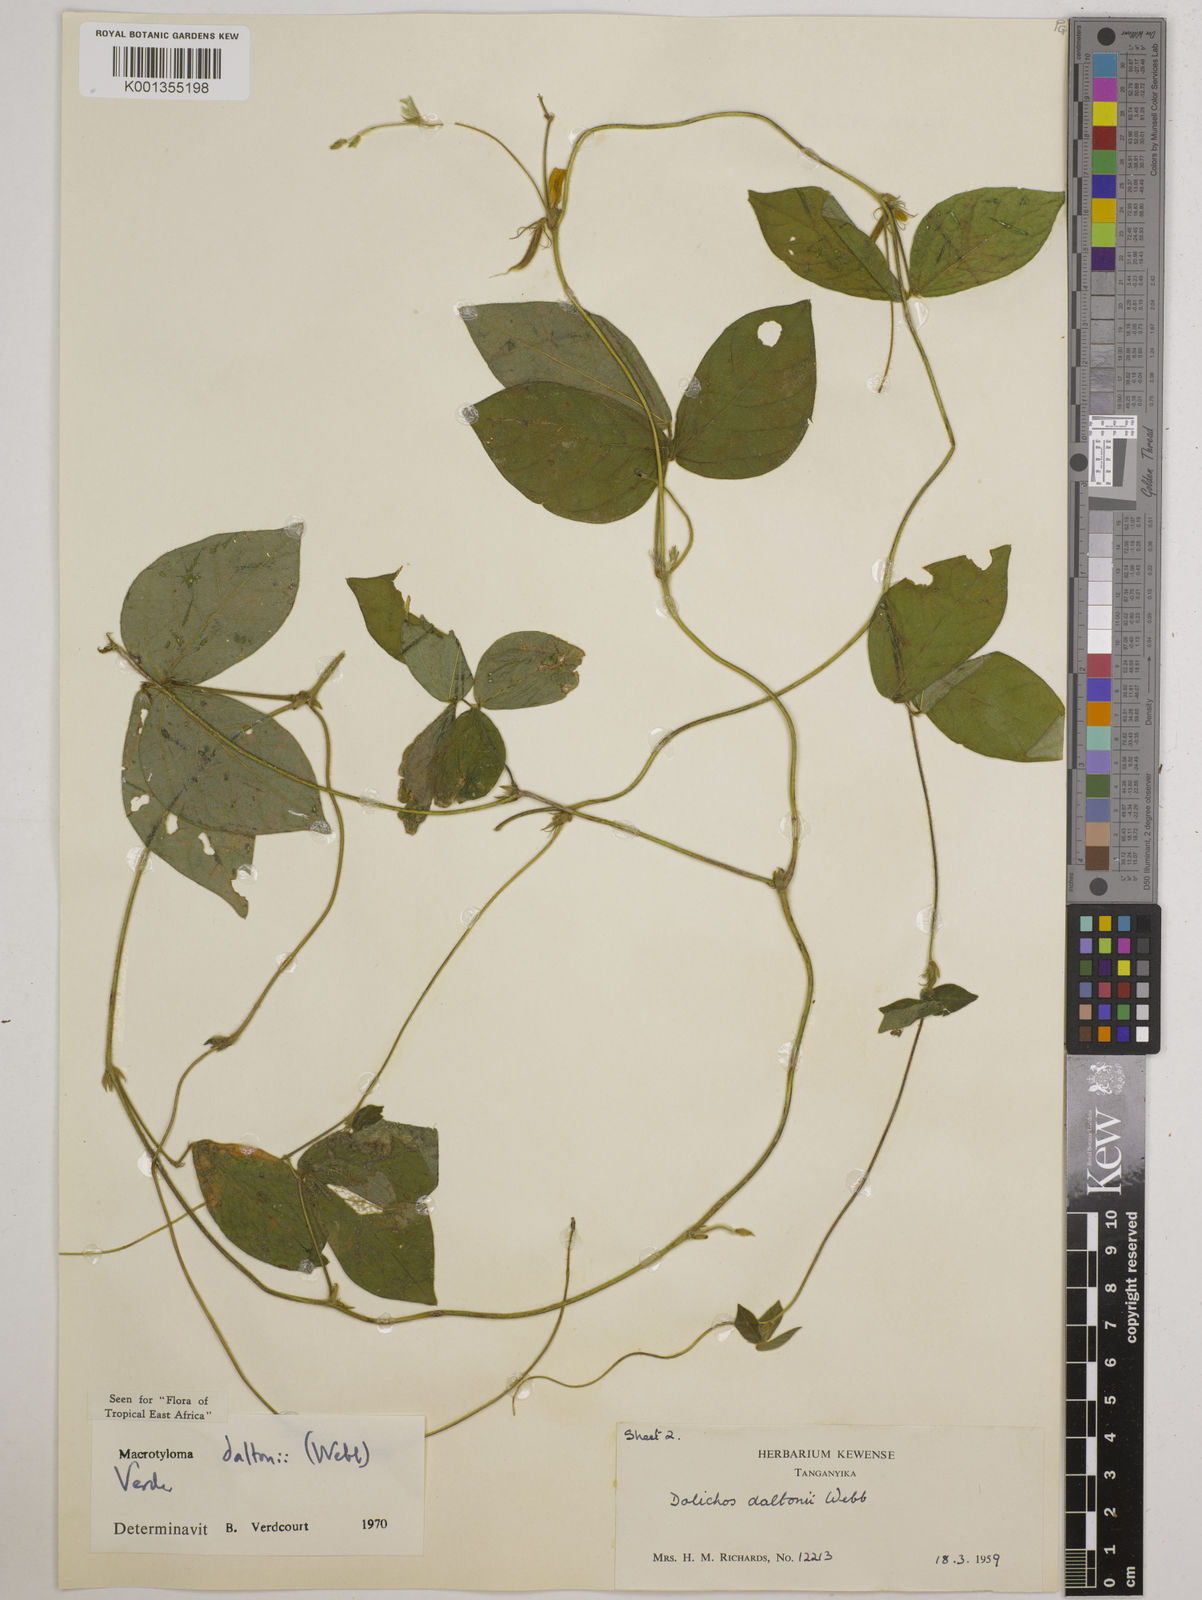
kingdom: Plantae
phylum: Tracheophyta
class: Magnoliopsida
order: Fabales
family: Fabaceae
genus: Macrotyloma
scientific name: Macrotyloma daltonii
